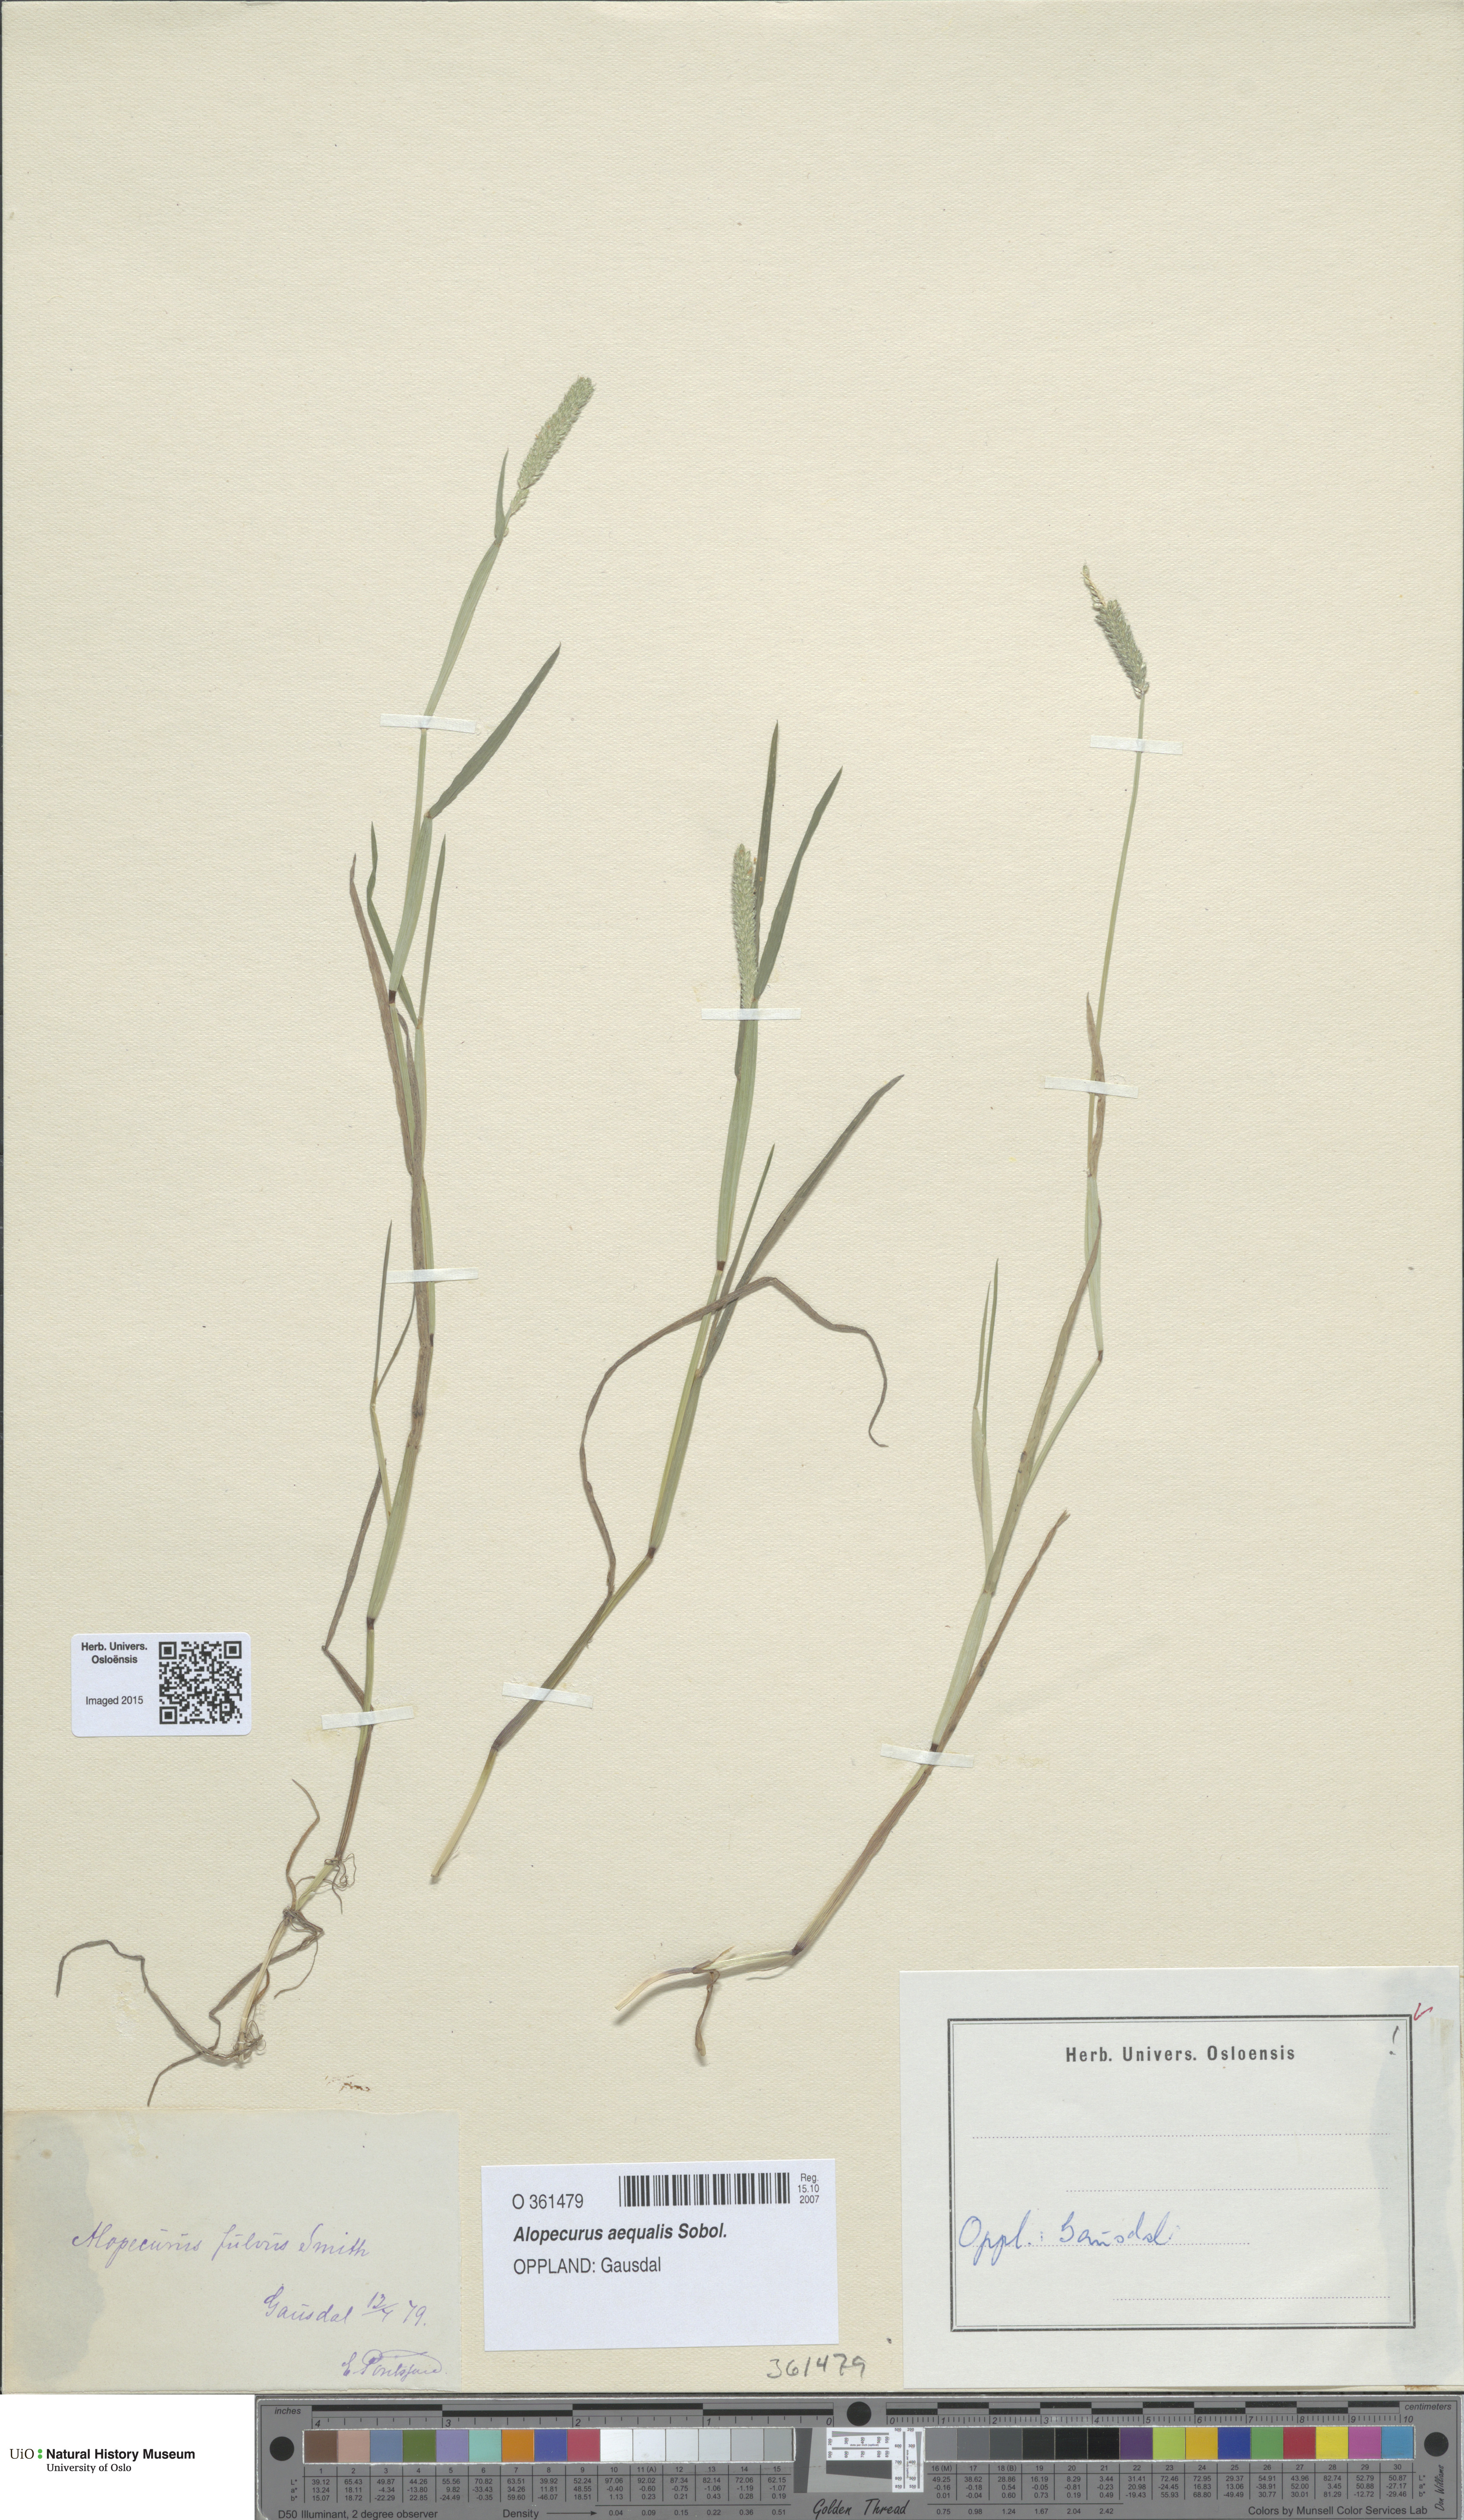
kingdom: Plantae
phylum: Tracheophyta
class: Liliopsida
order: Poales
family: Poaceae
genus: Alopecurus
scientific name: Alopecurus aequalis
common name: Orange foxtail
